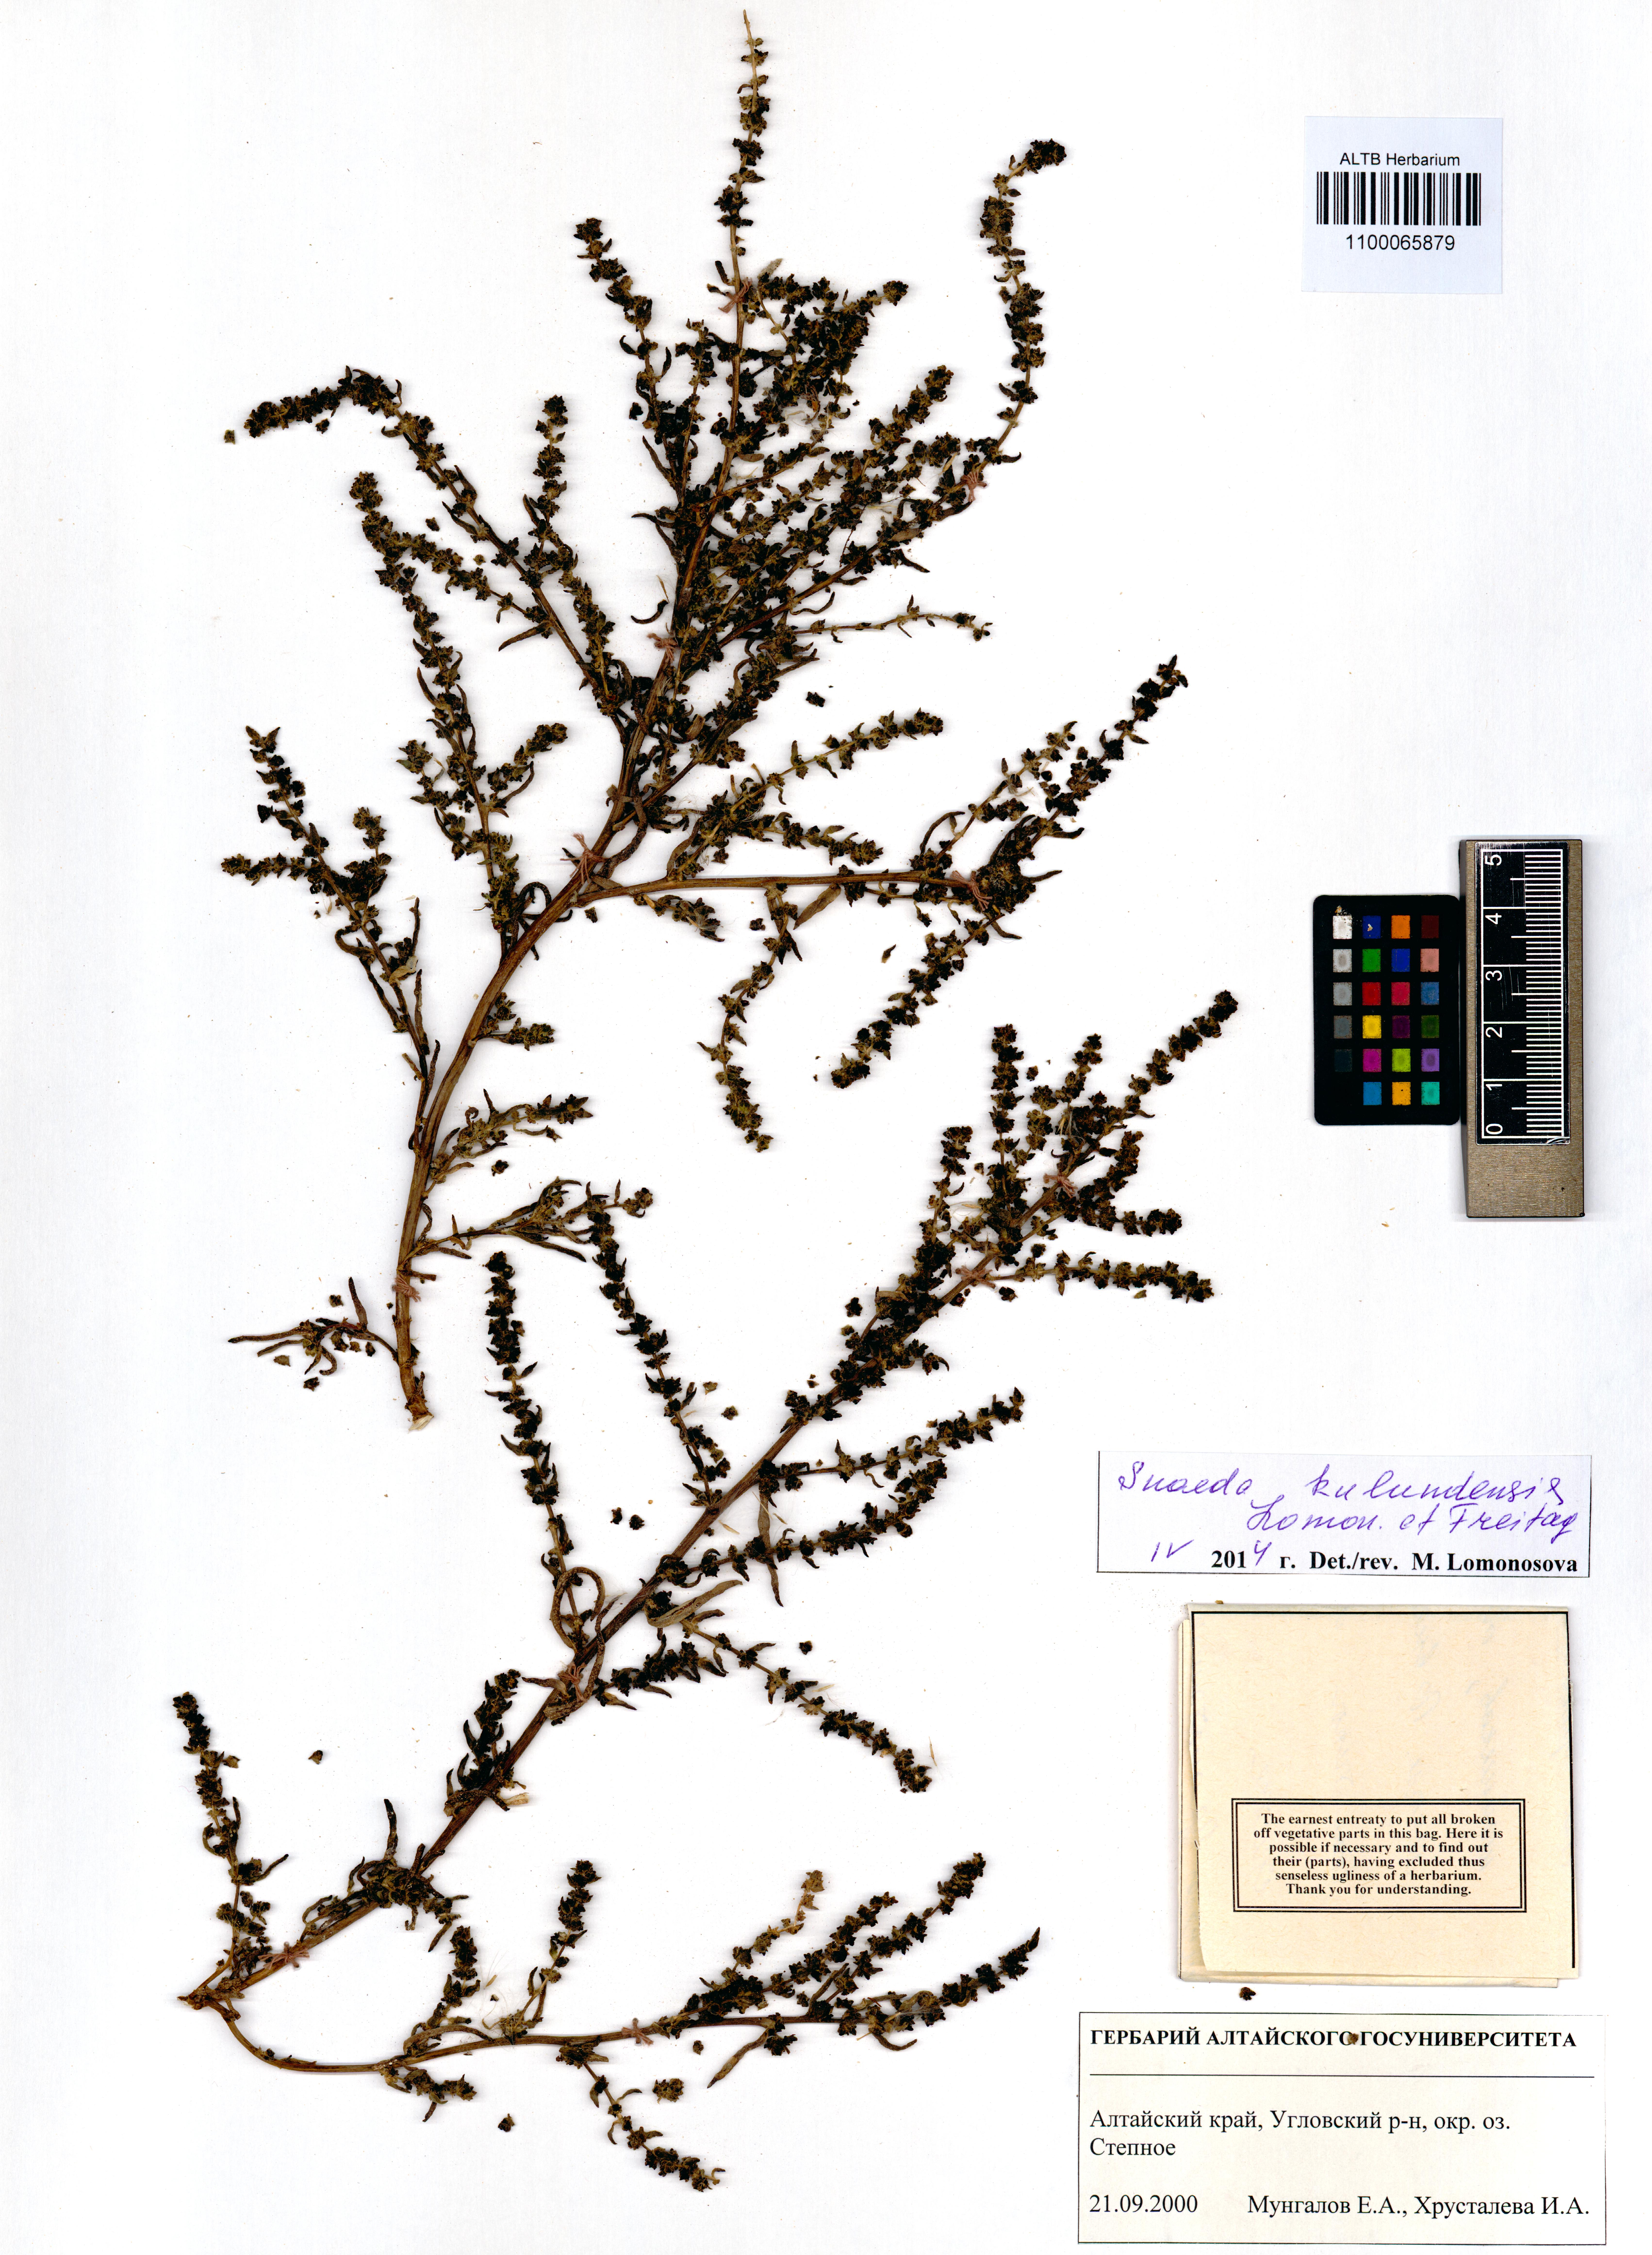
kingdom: Plantae
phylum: Tracheophyta
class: Magnoliopsida
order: Caryophyllales
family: Amaranthaceae
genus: Suaeda
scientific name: Suaeda kulundensis
